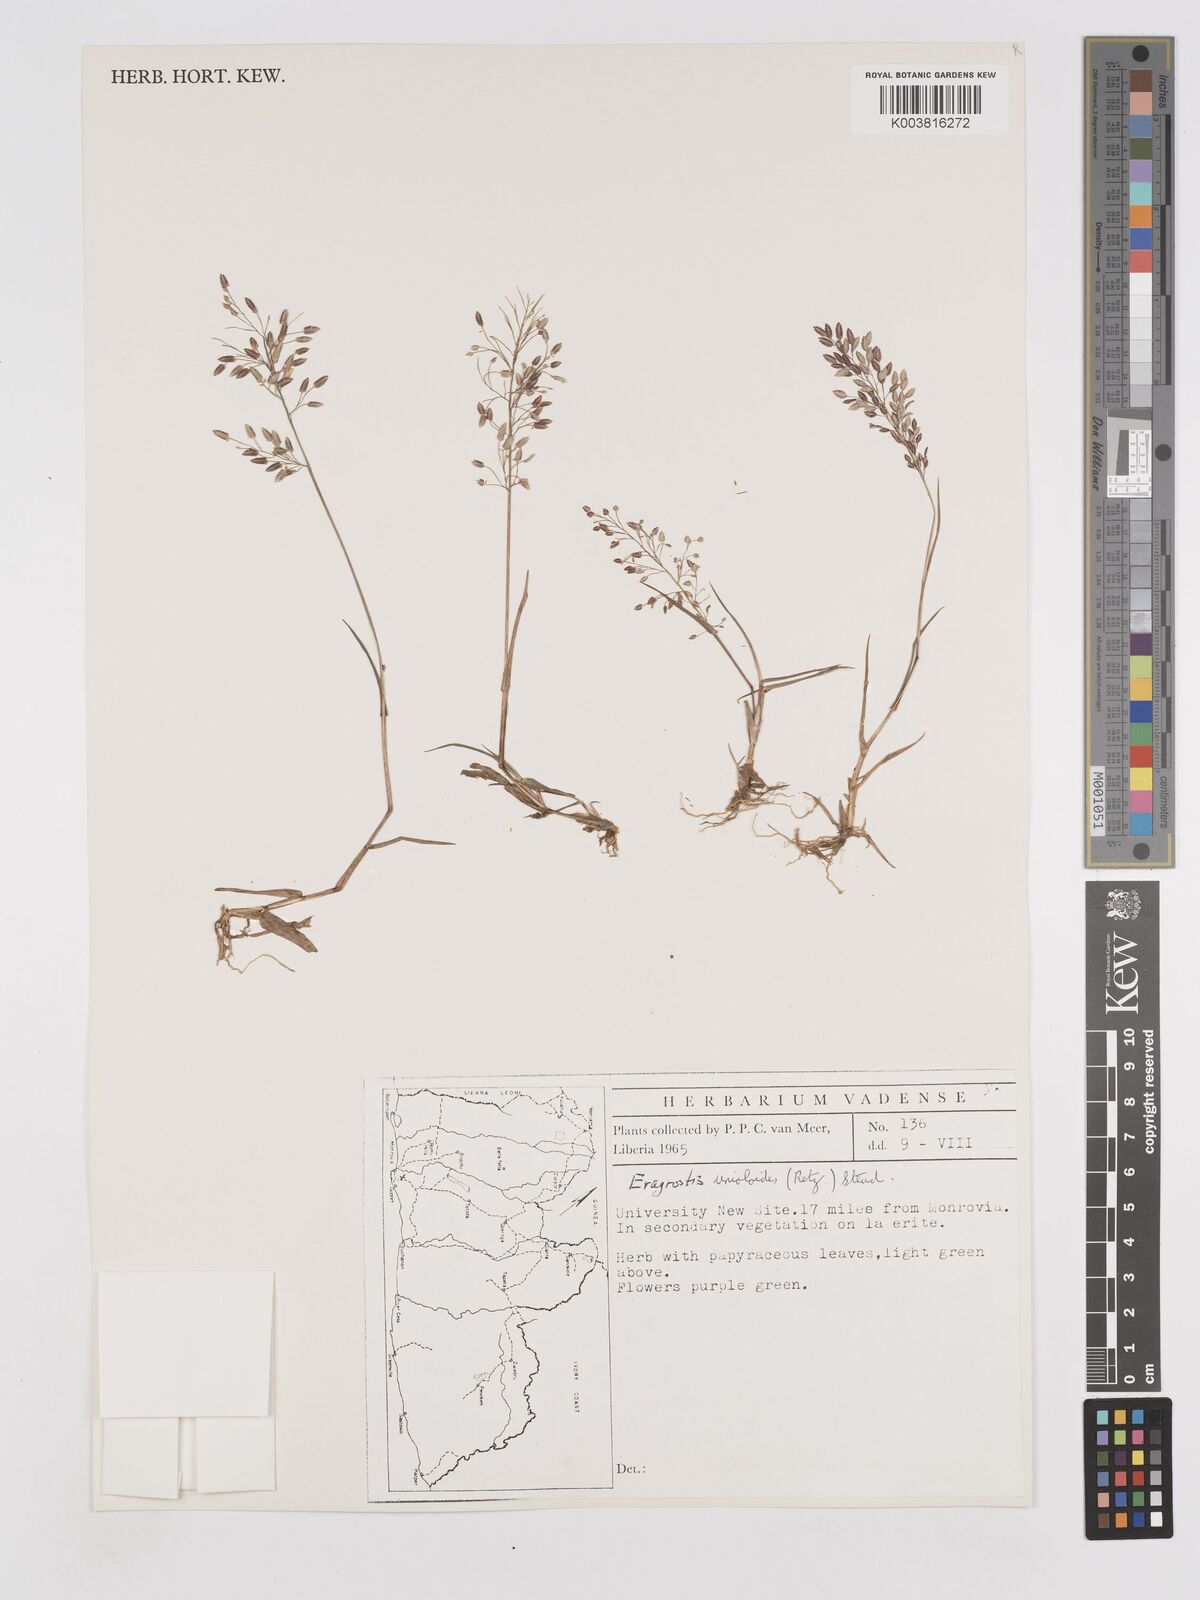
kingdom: Plantae
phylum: Tracheophyta
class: Liliopsida
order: Poales
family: Poaceae
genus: Eragrostis
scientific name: Eragrostis unioloides
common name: Chinese lovegrass
